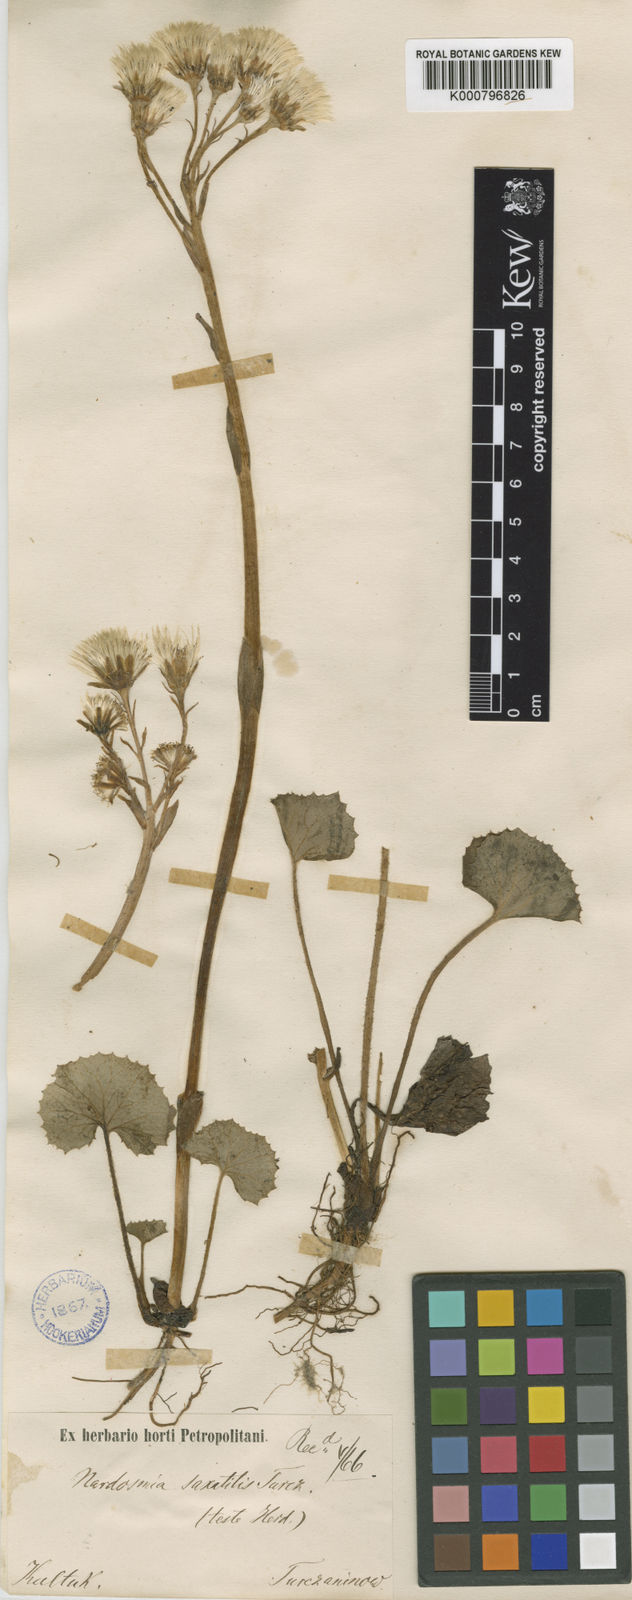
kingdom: Plantae
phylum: Tracheophyta
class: Magnoliopsida
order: Asterales
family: Asteraceae
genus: Petasites
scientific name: Petasites rubellus
